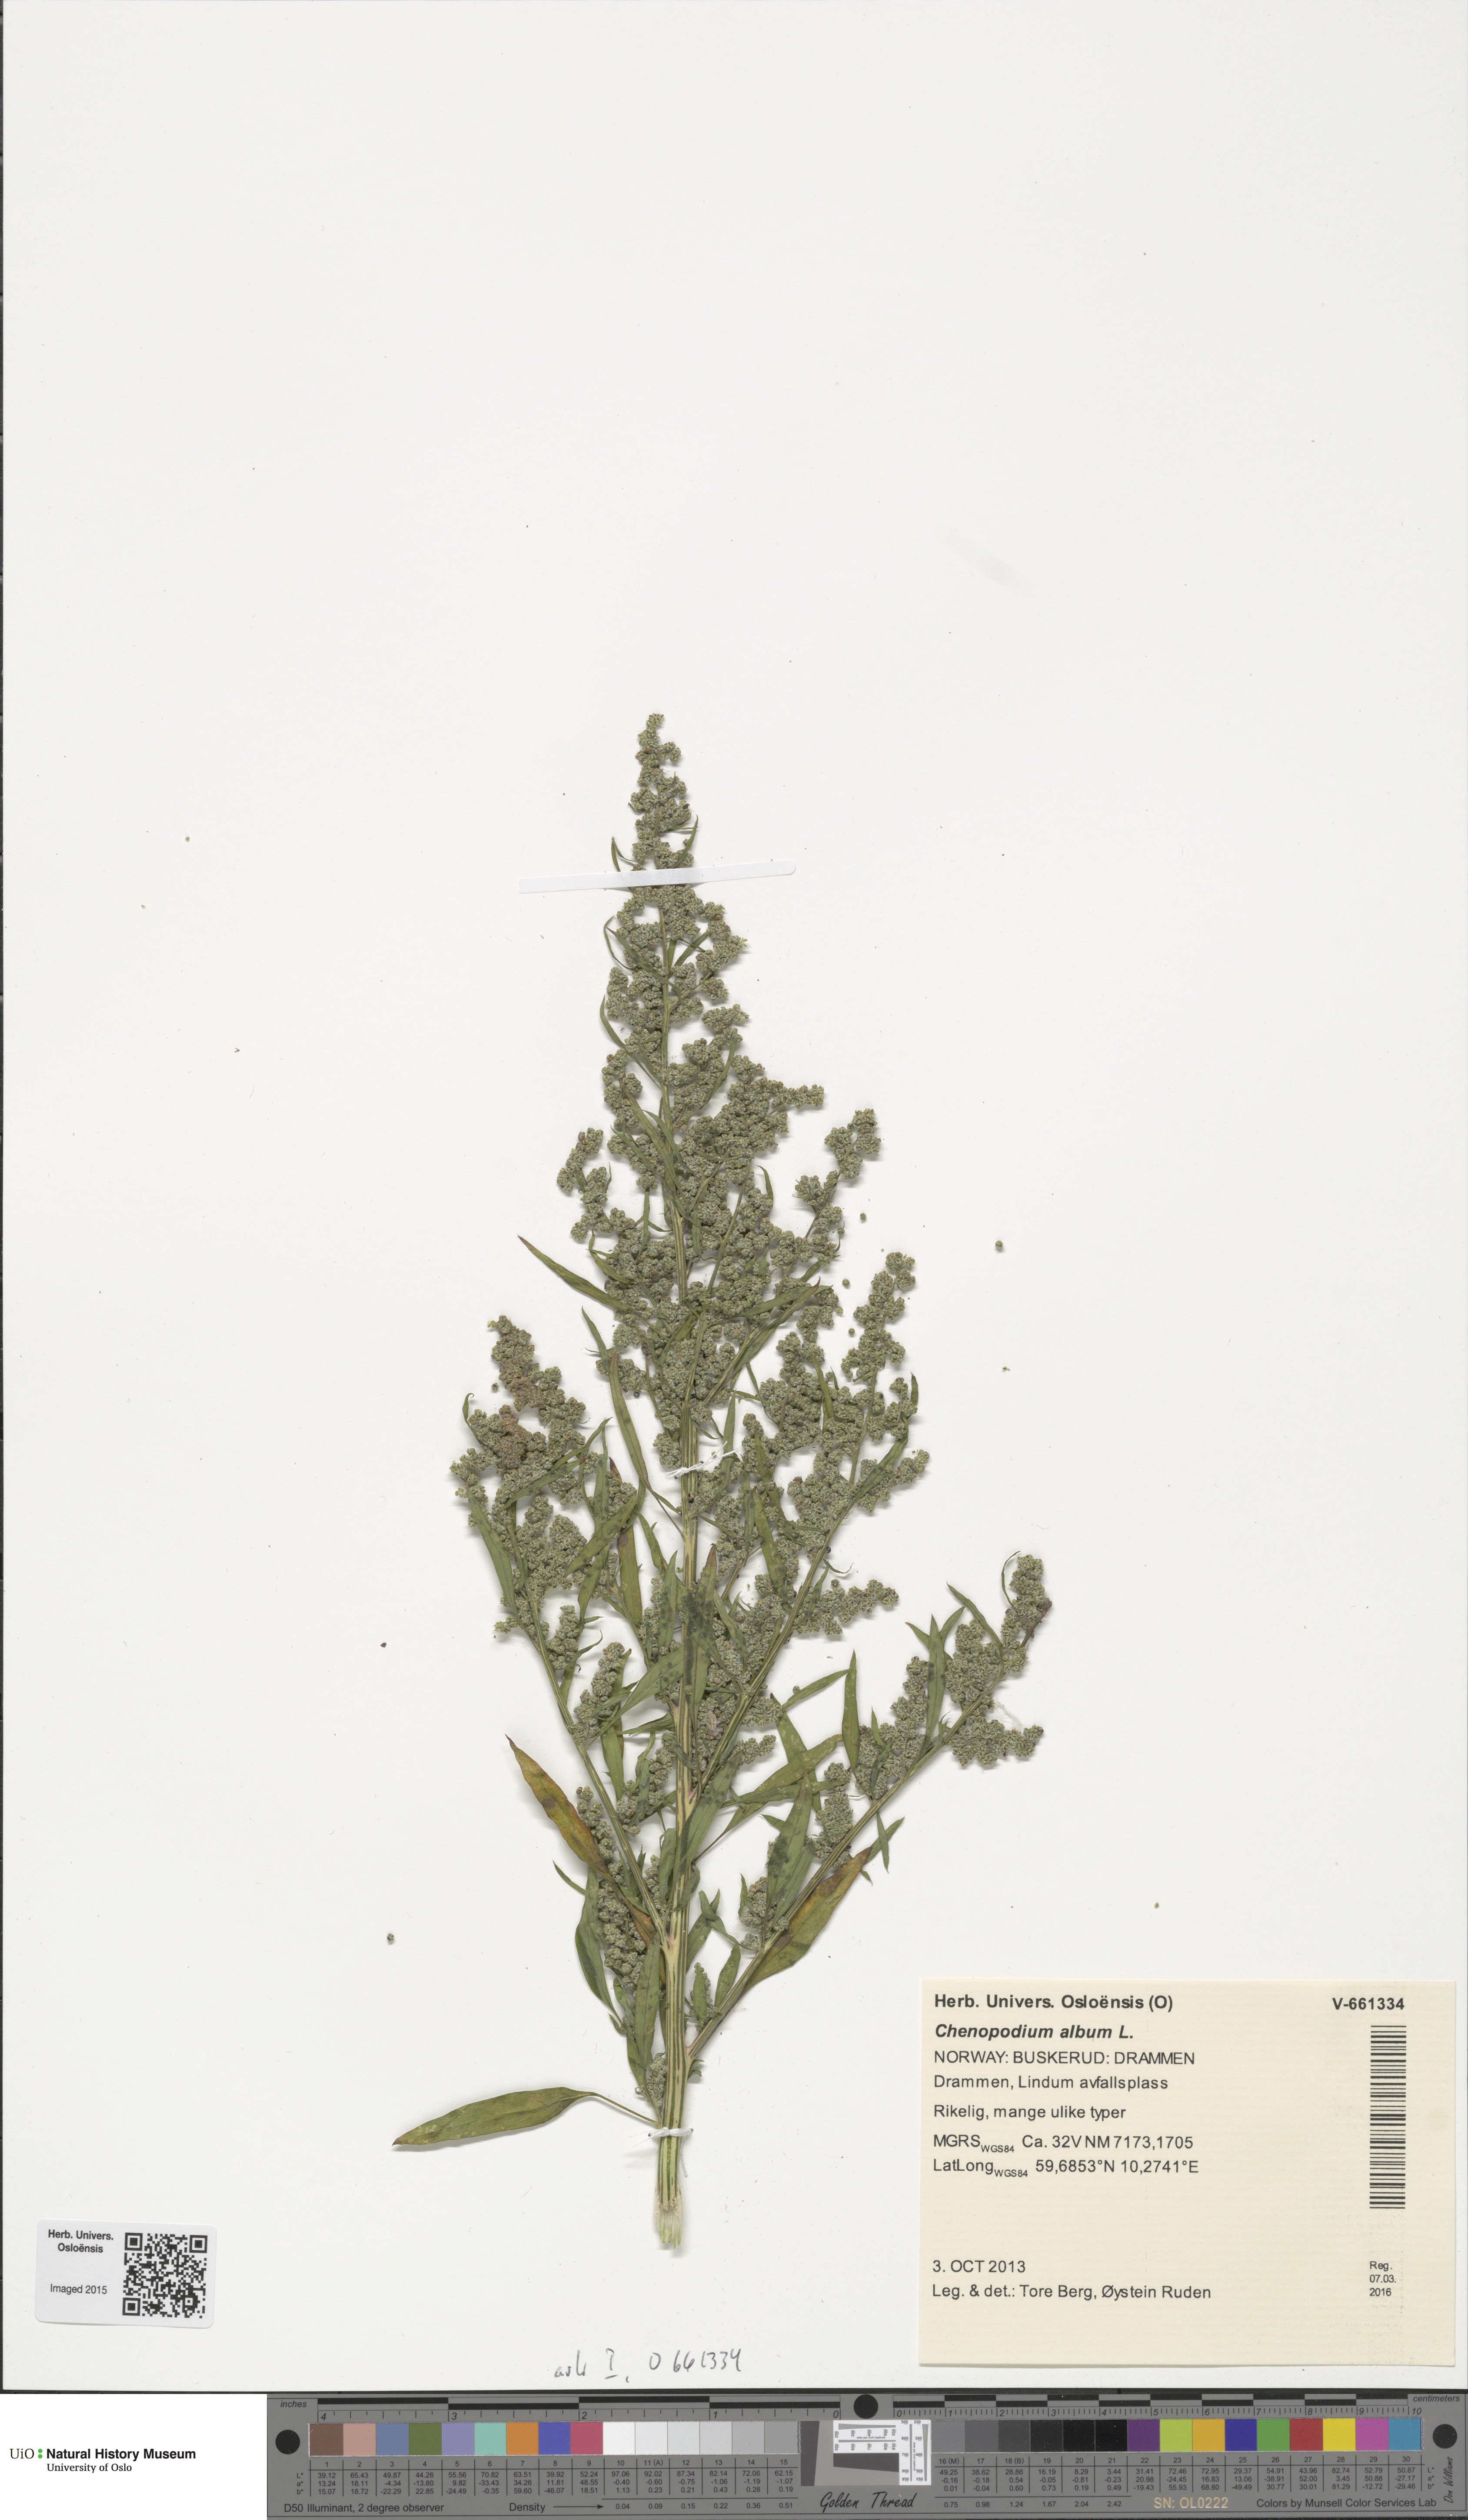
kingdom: Plantae
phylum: Tracheophyta
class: Magnoliopsida
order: Caryophyllales
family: Amaranthaceae
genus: Chenopodium
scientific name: Chenopodium album
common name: Fat-hen
